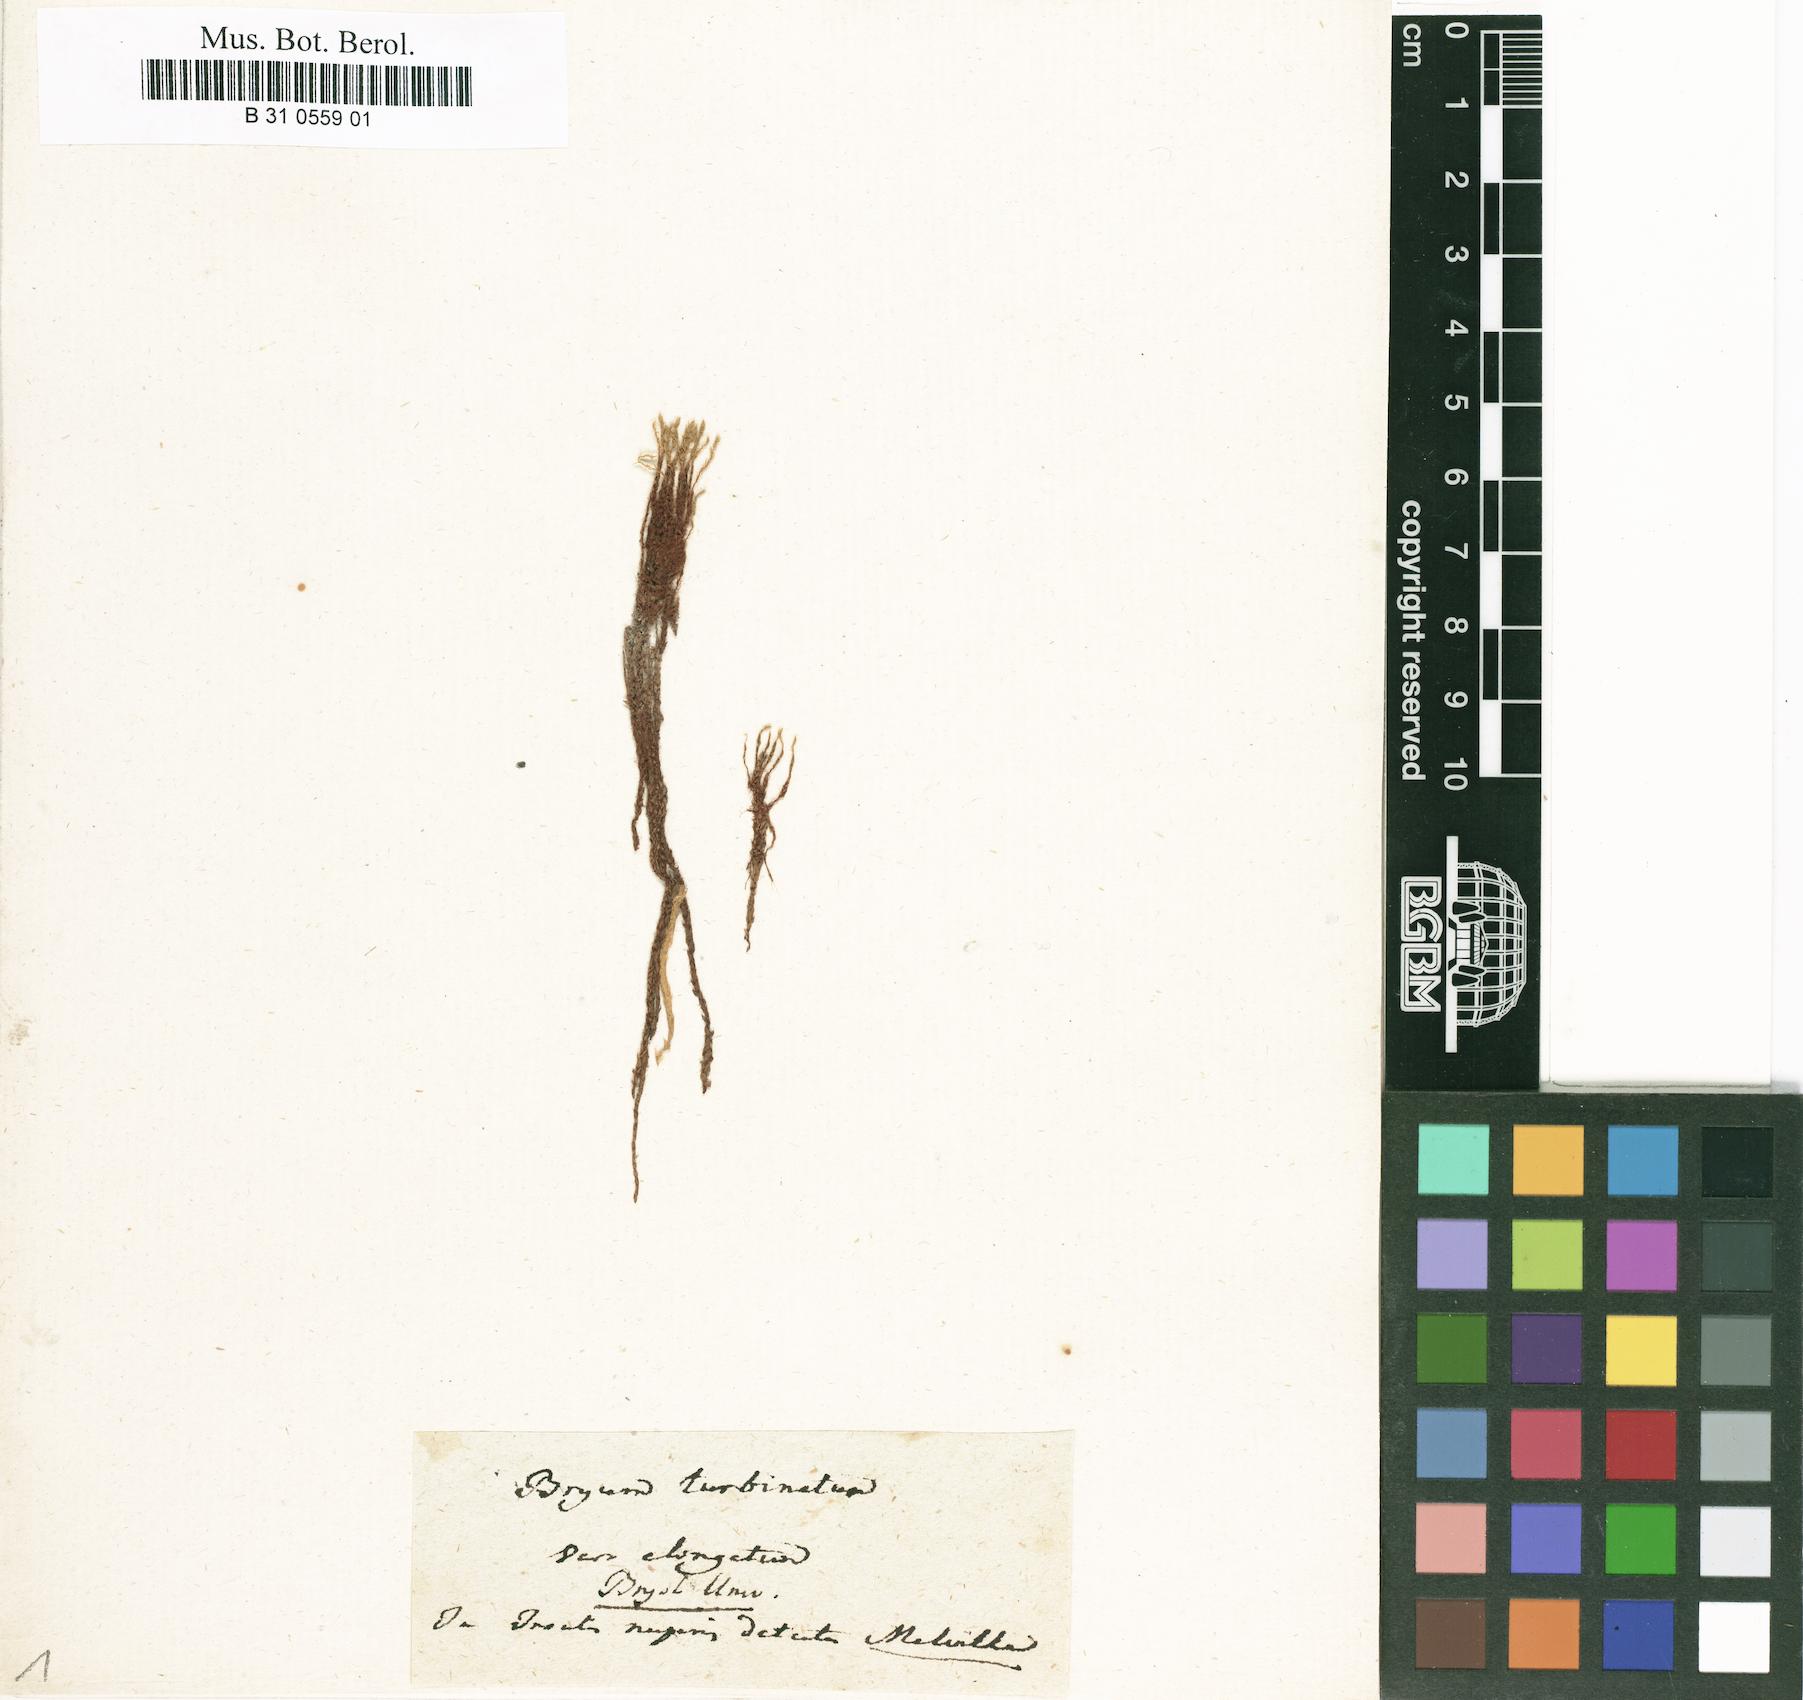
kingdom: Plantae
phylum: Bryophyta
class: Bryopsida
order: Bryales
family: Bryaceae
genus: Ptychostomum
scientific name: Ptychostomum turbinatum
